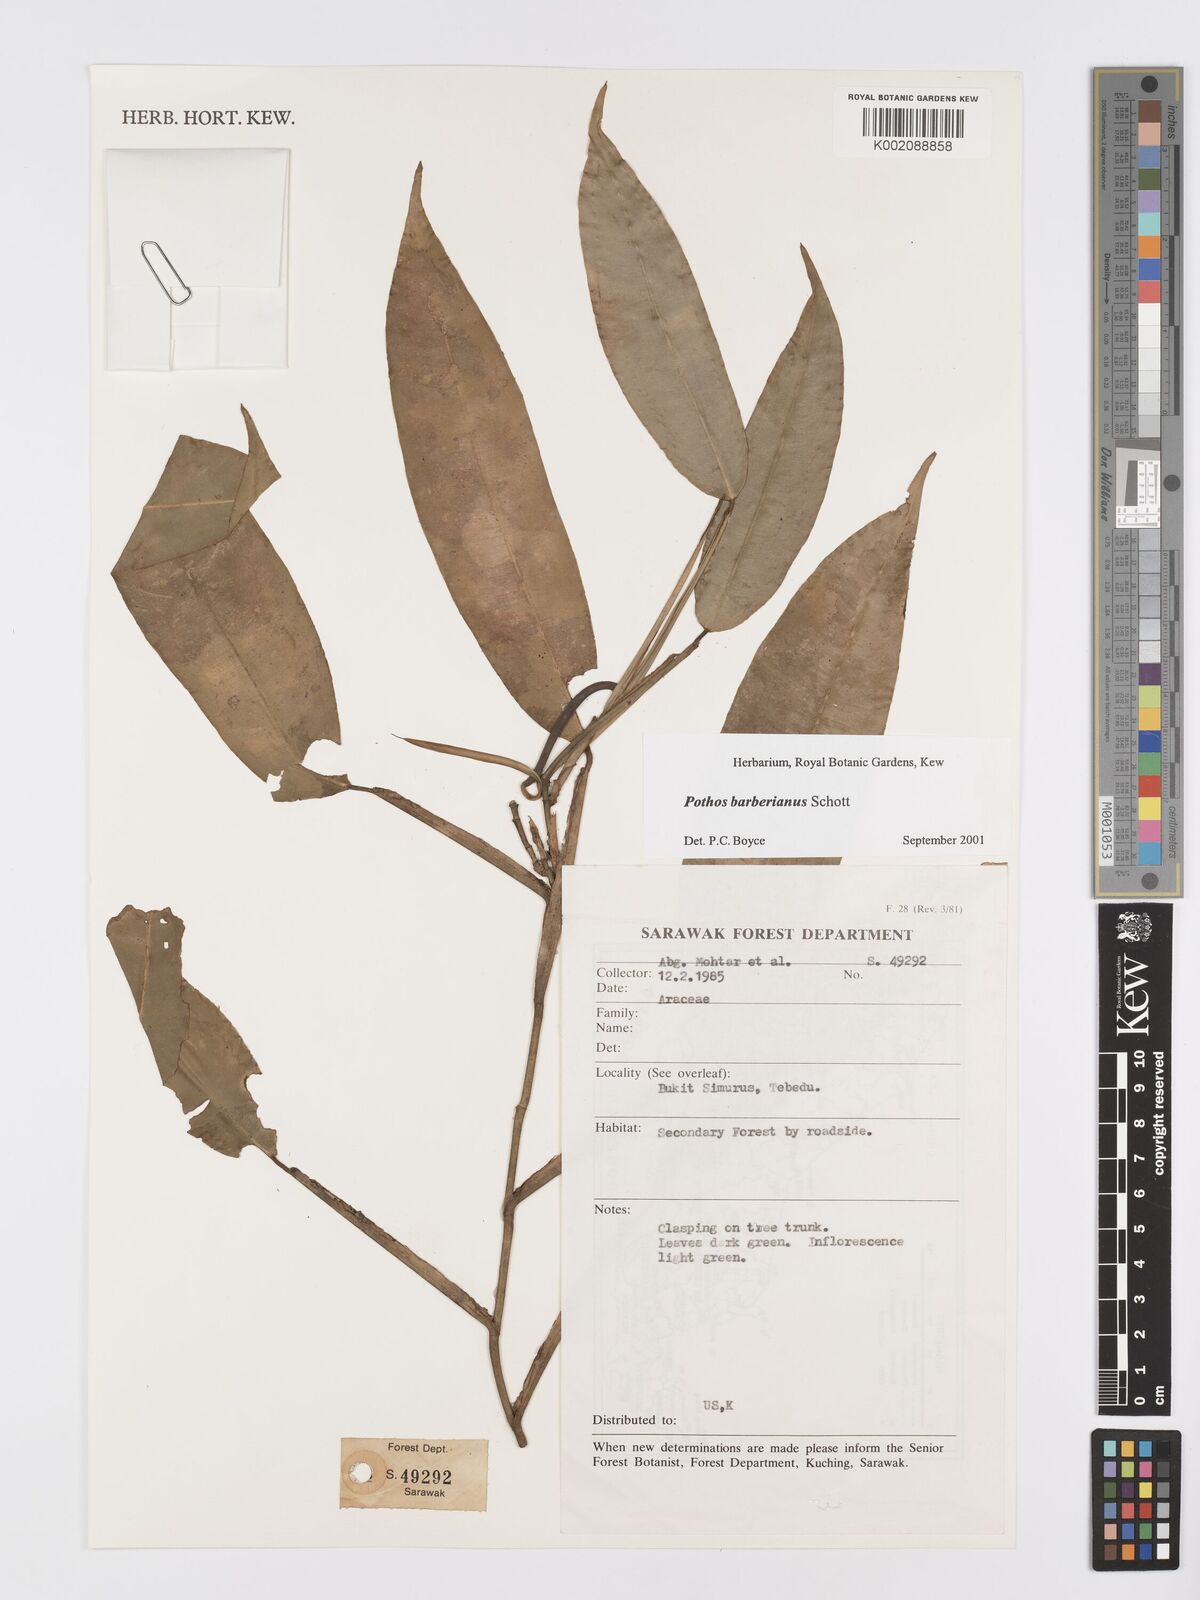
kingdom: Plantae
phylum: Tracheophyta
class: Liliopsida
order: Alismatales
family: Araceae
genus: Pothos
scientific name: Pothos barberianus
